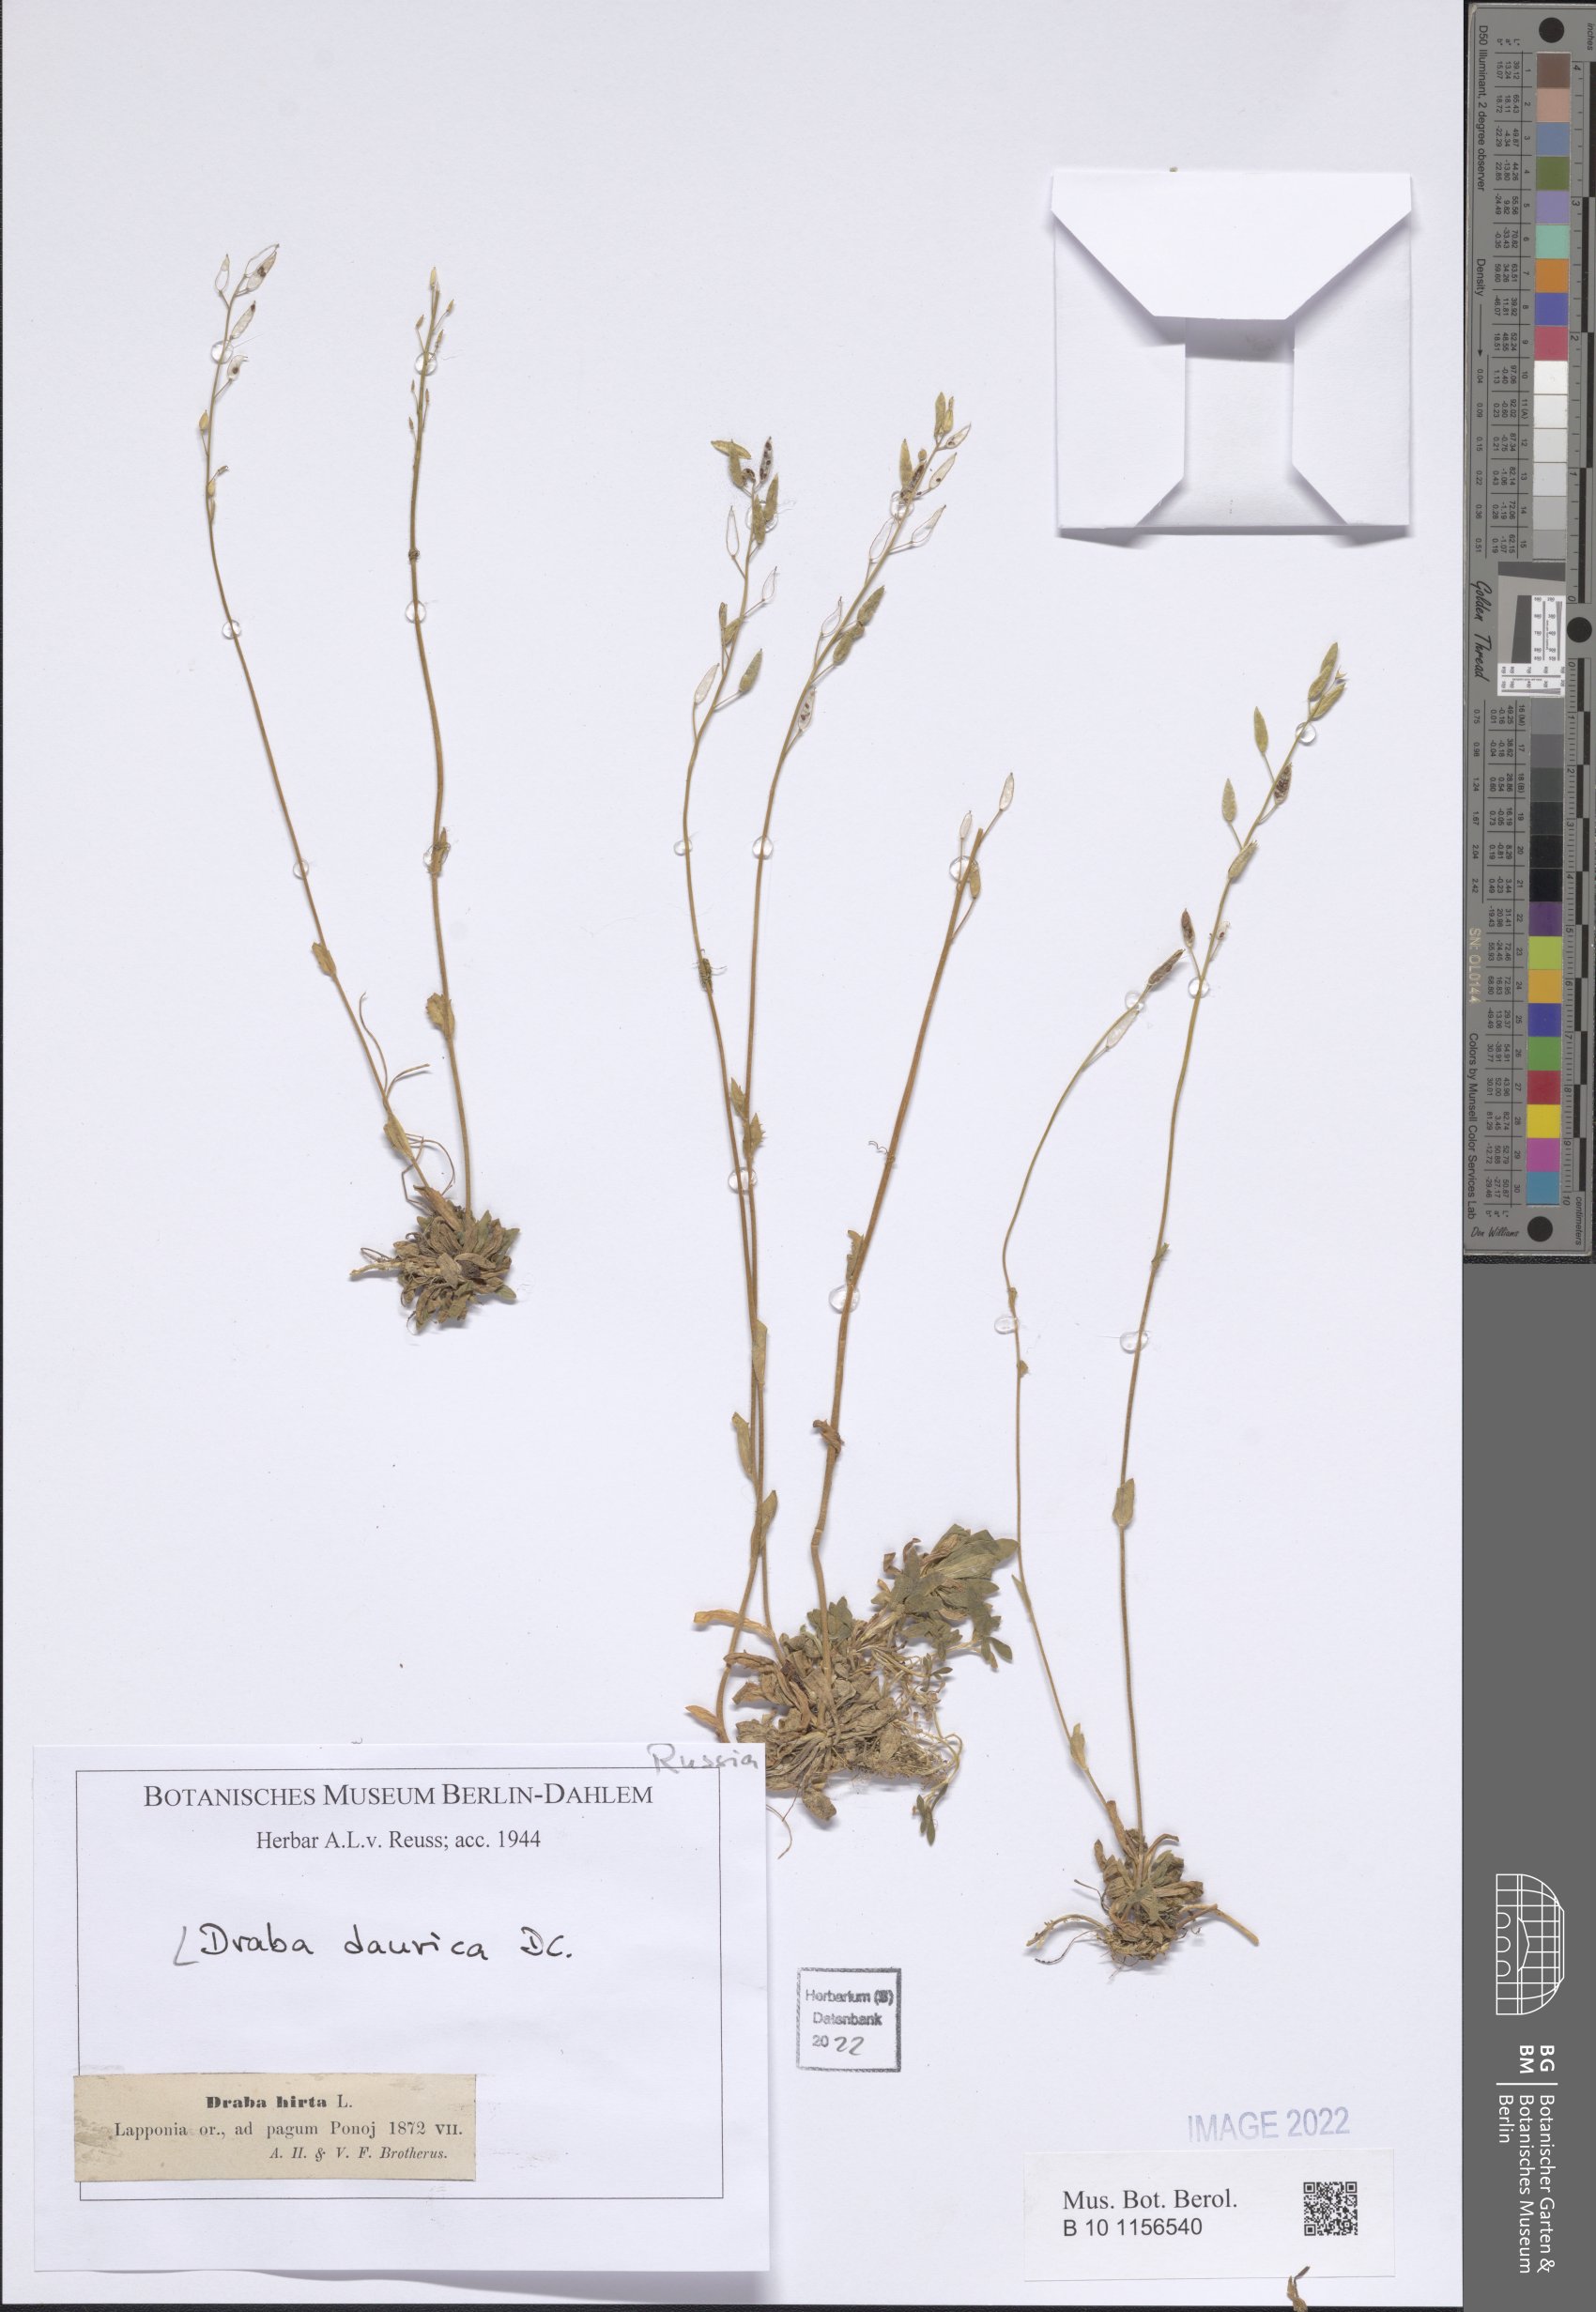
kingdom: Plantae
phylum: Tracheophyta
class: Magnoliopsida
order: Brassicales
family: Brassicaceae
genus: Draba
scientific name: Draba glabella
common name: Glaucous draba
